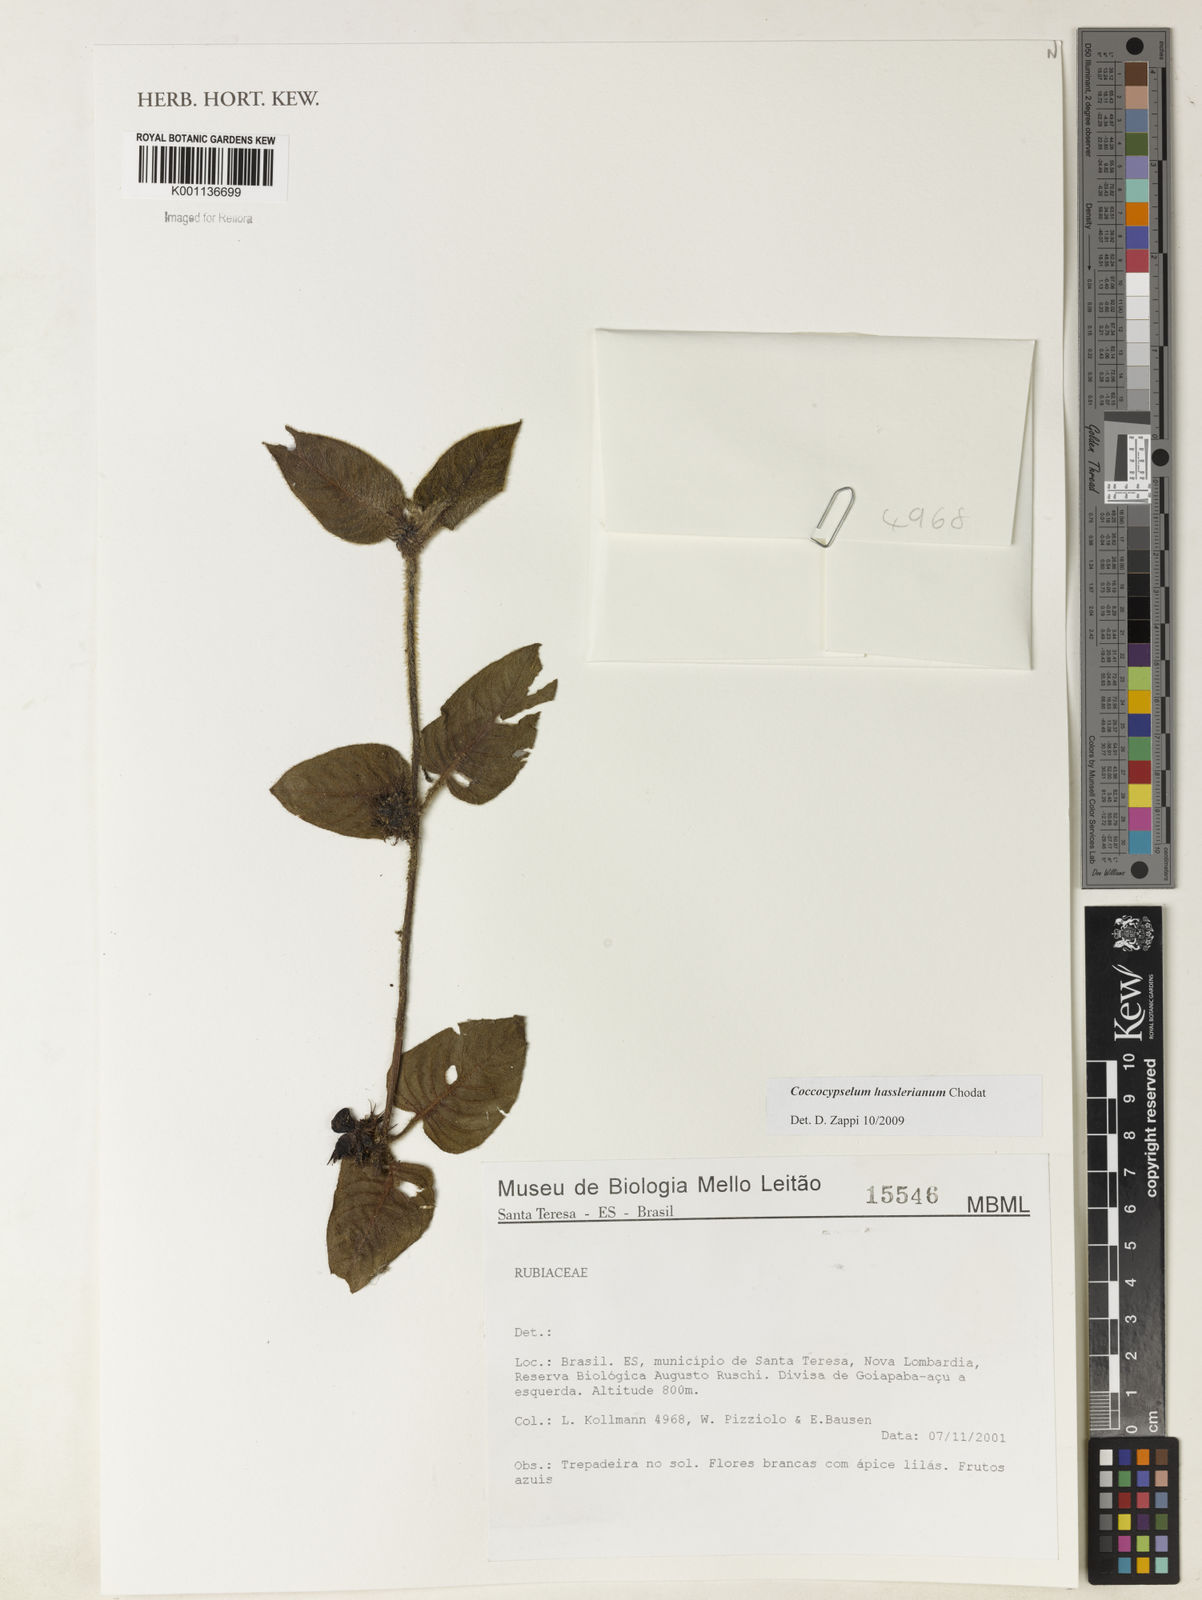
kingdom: Plantae
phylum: Tracheophyta
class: Magnoliopsida
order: Gentianales
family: Rubiaceae
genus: Coccocypselum
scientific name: Coccocypselum hasslerianum
